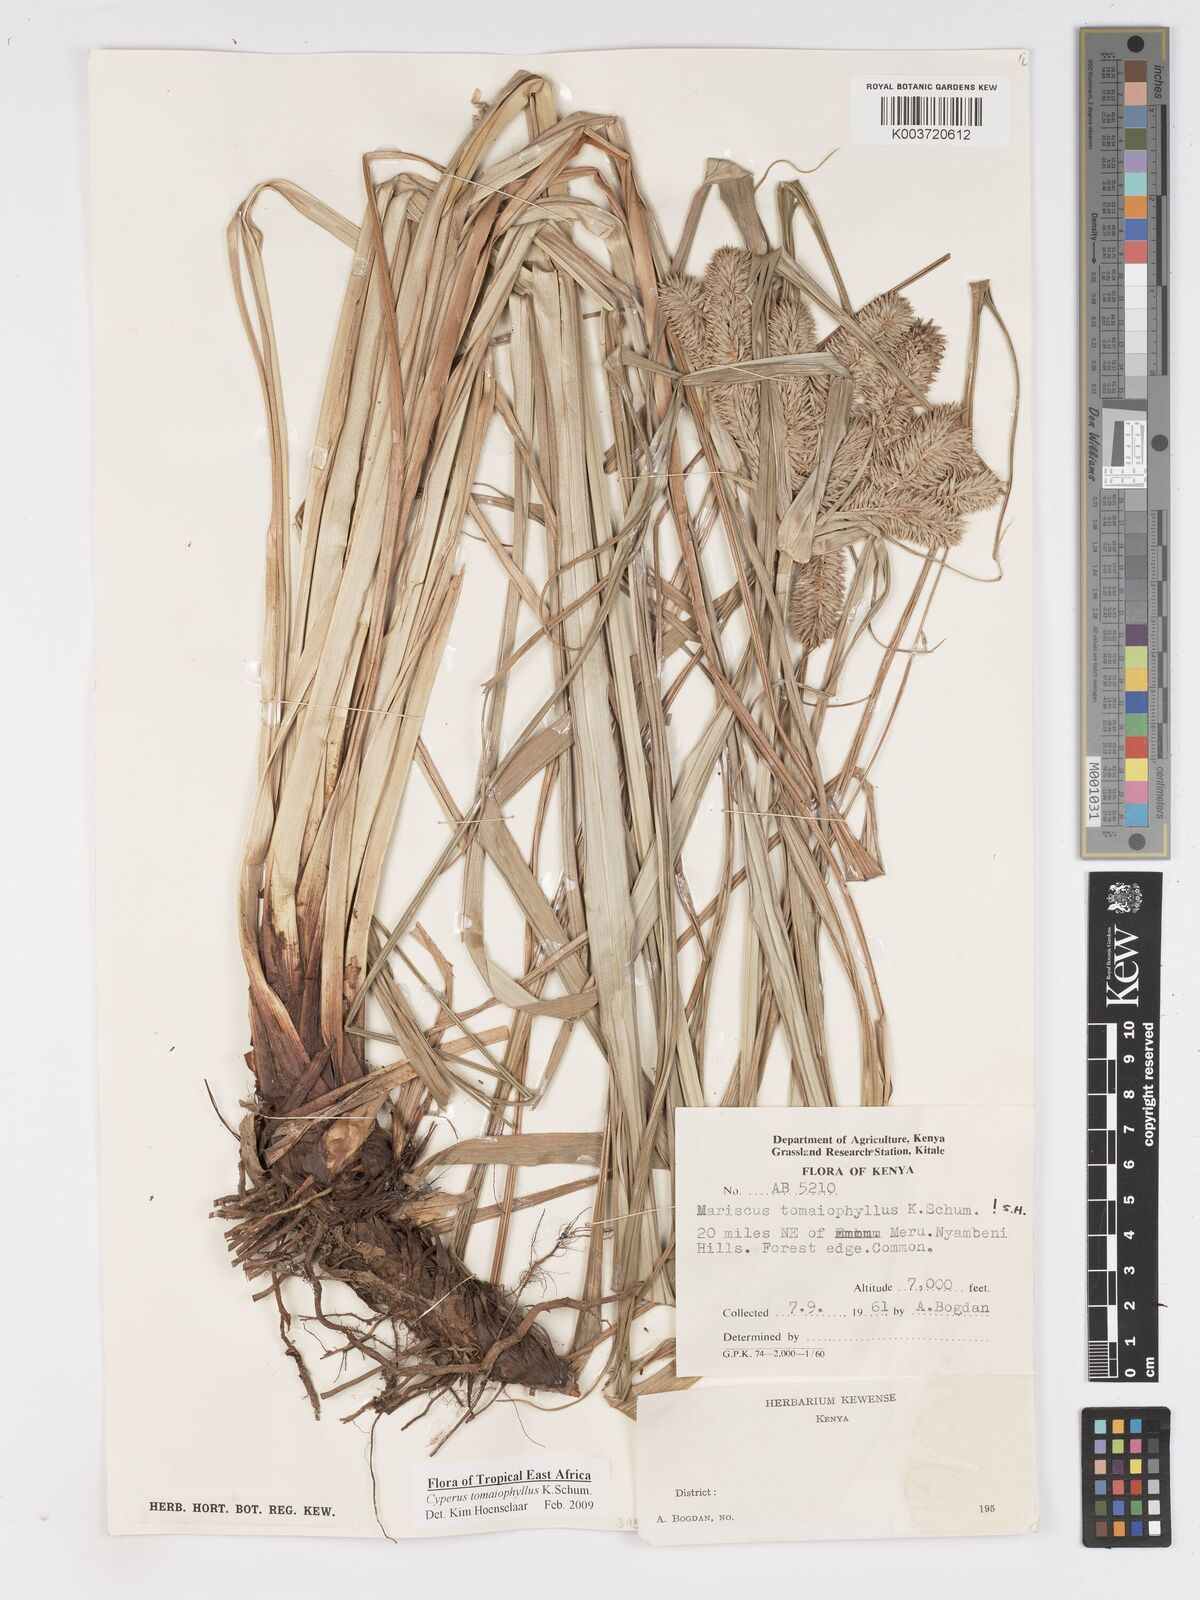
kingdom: Plantae
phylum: Tracheophyta
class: Liliopsida
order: Poales
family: Cyperaceae
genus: Cyperus
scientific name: Cyperus tomaiophyllus
